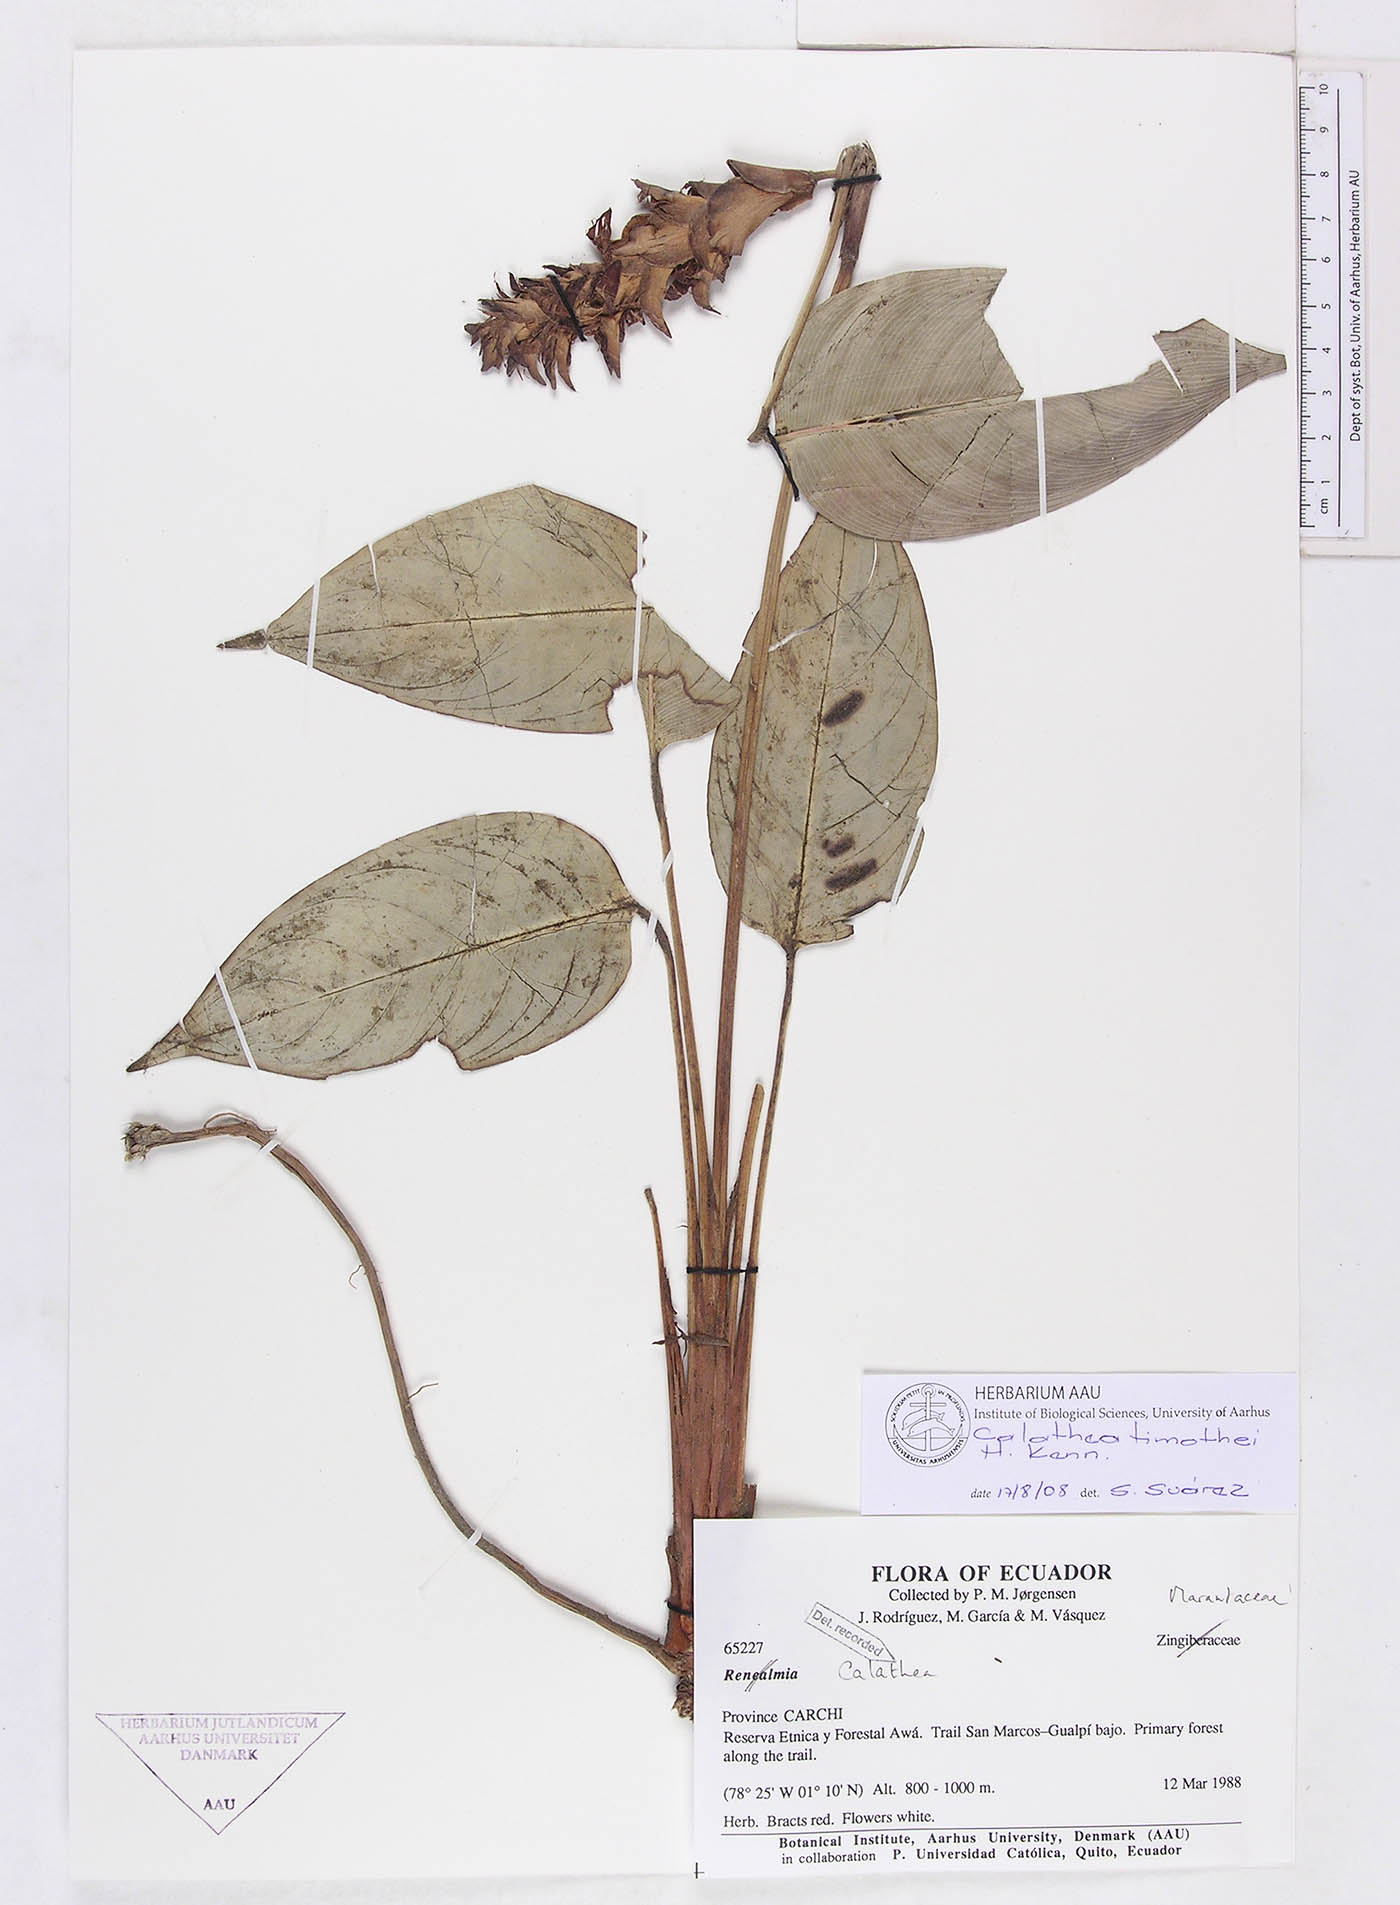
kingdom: Plantae
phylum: Tracheophyta
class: Liliopsida
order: Zingiberales
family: Marantaceae
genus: Calathea
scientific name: Calathea timothei
